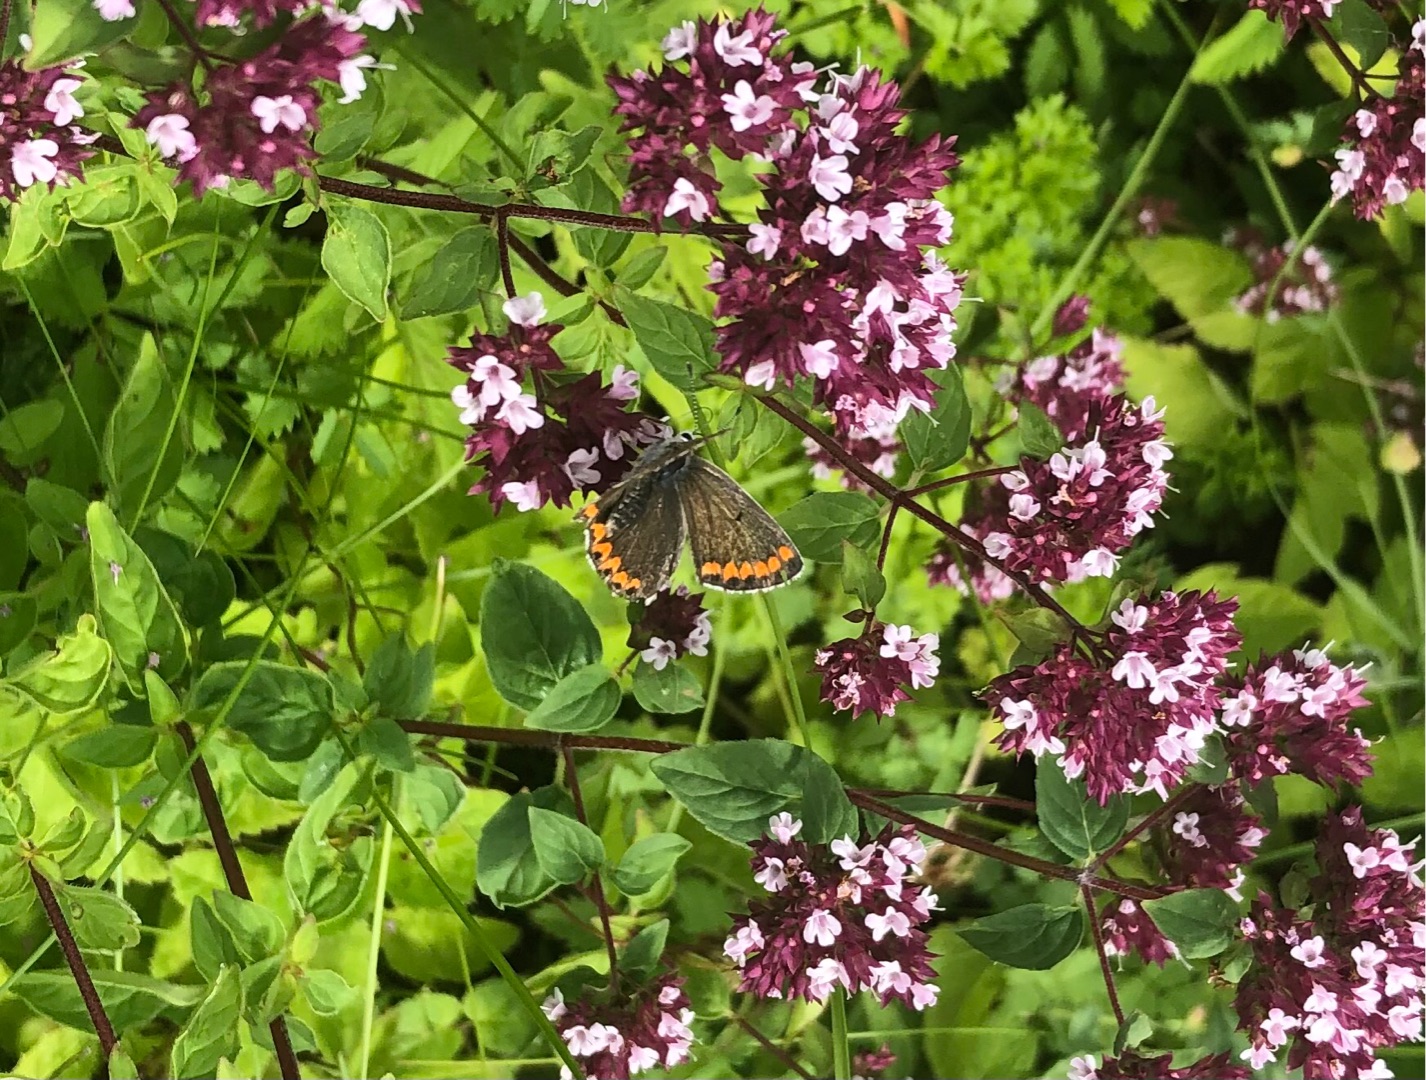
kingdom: Animalia
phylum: Arthropoda
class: Insecta
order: Lepidoptera
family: Lycaenidae
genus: Aricia
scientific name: Aricia agestis
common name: Rødplettet blåfugl
